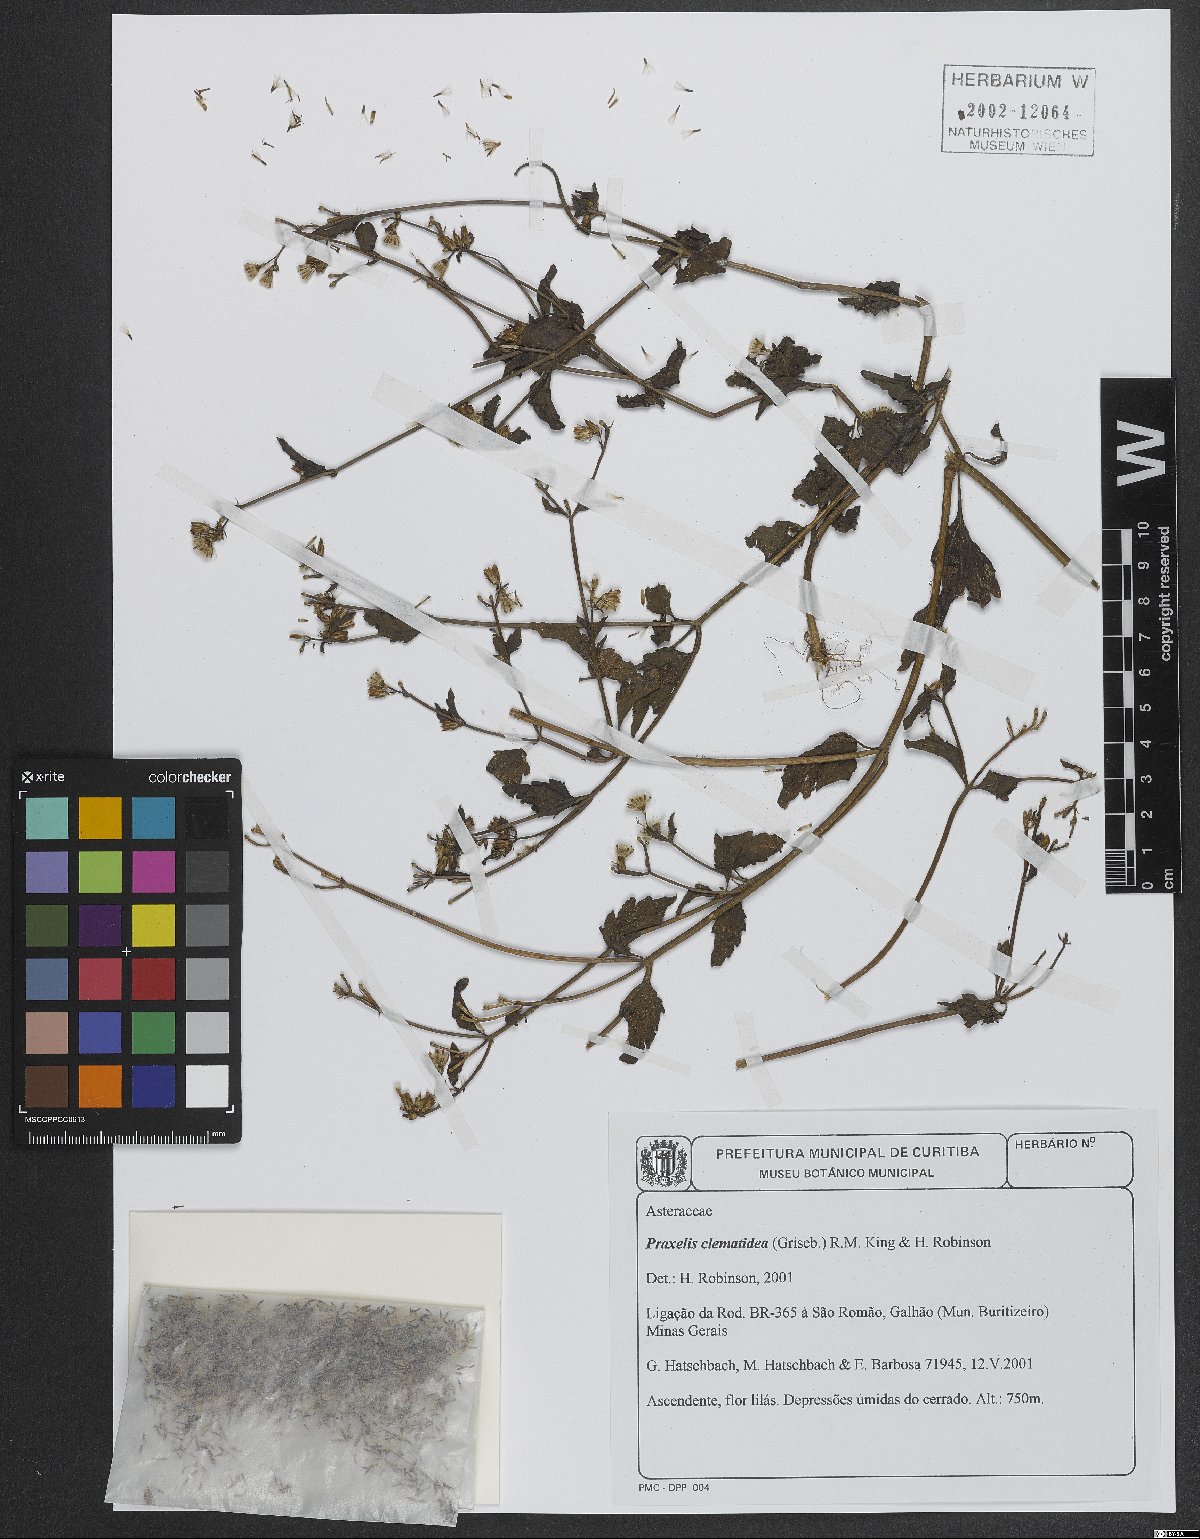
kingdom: Plantae
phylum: Tracheophyta
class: Magnoliopsida
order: Asterales
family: Asteraceae
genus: Praxelis
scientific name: Praxelis clematidea
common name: Praxelis
